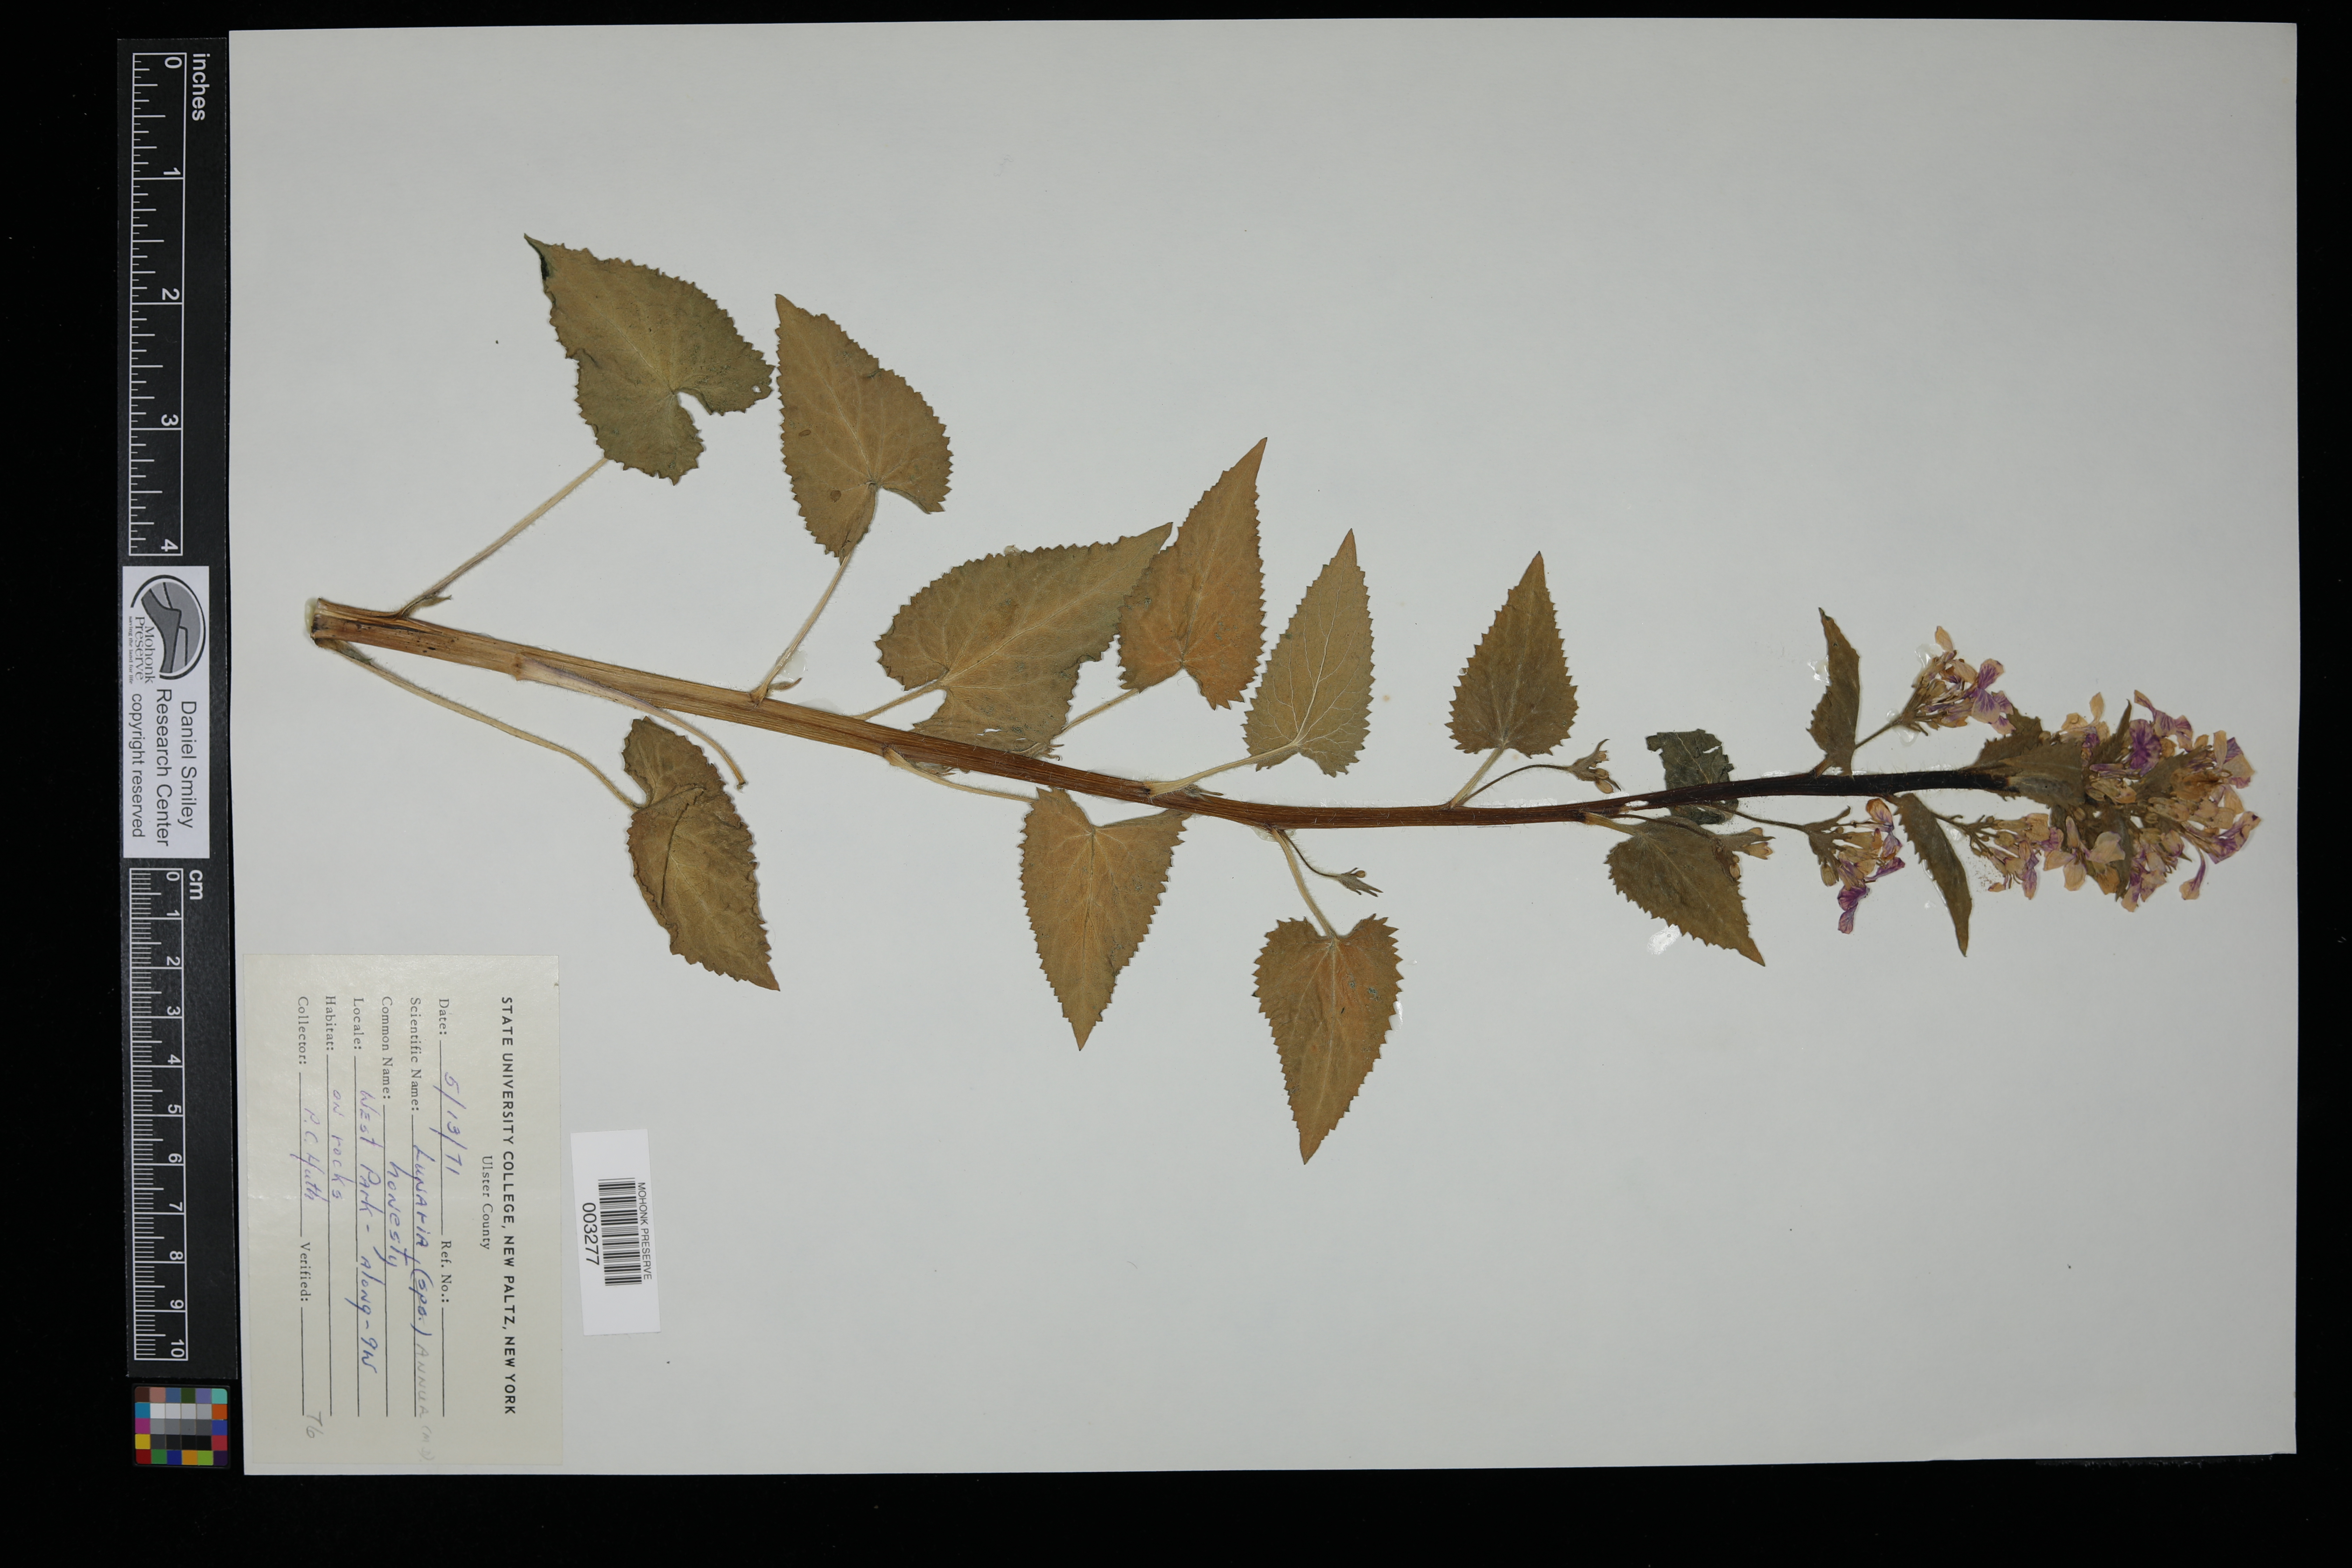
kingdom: Plantae
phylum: Tracheophyta
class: Magnoliopsida
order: Brassicales
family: Brassicaceae
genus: Lunaria
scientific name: Lunaria annua
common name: Honesty
